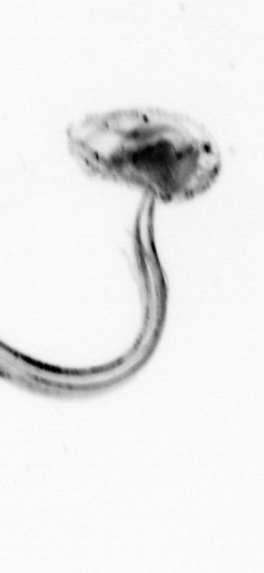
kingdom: Animalia
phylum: Chordata
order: Copelata
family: Fritillariidae
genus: Appendicularia
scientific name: Appendicularia
